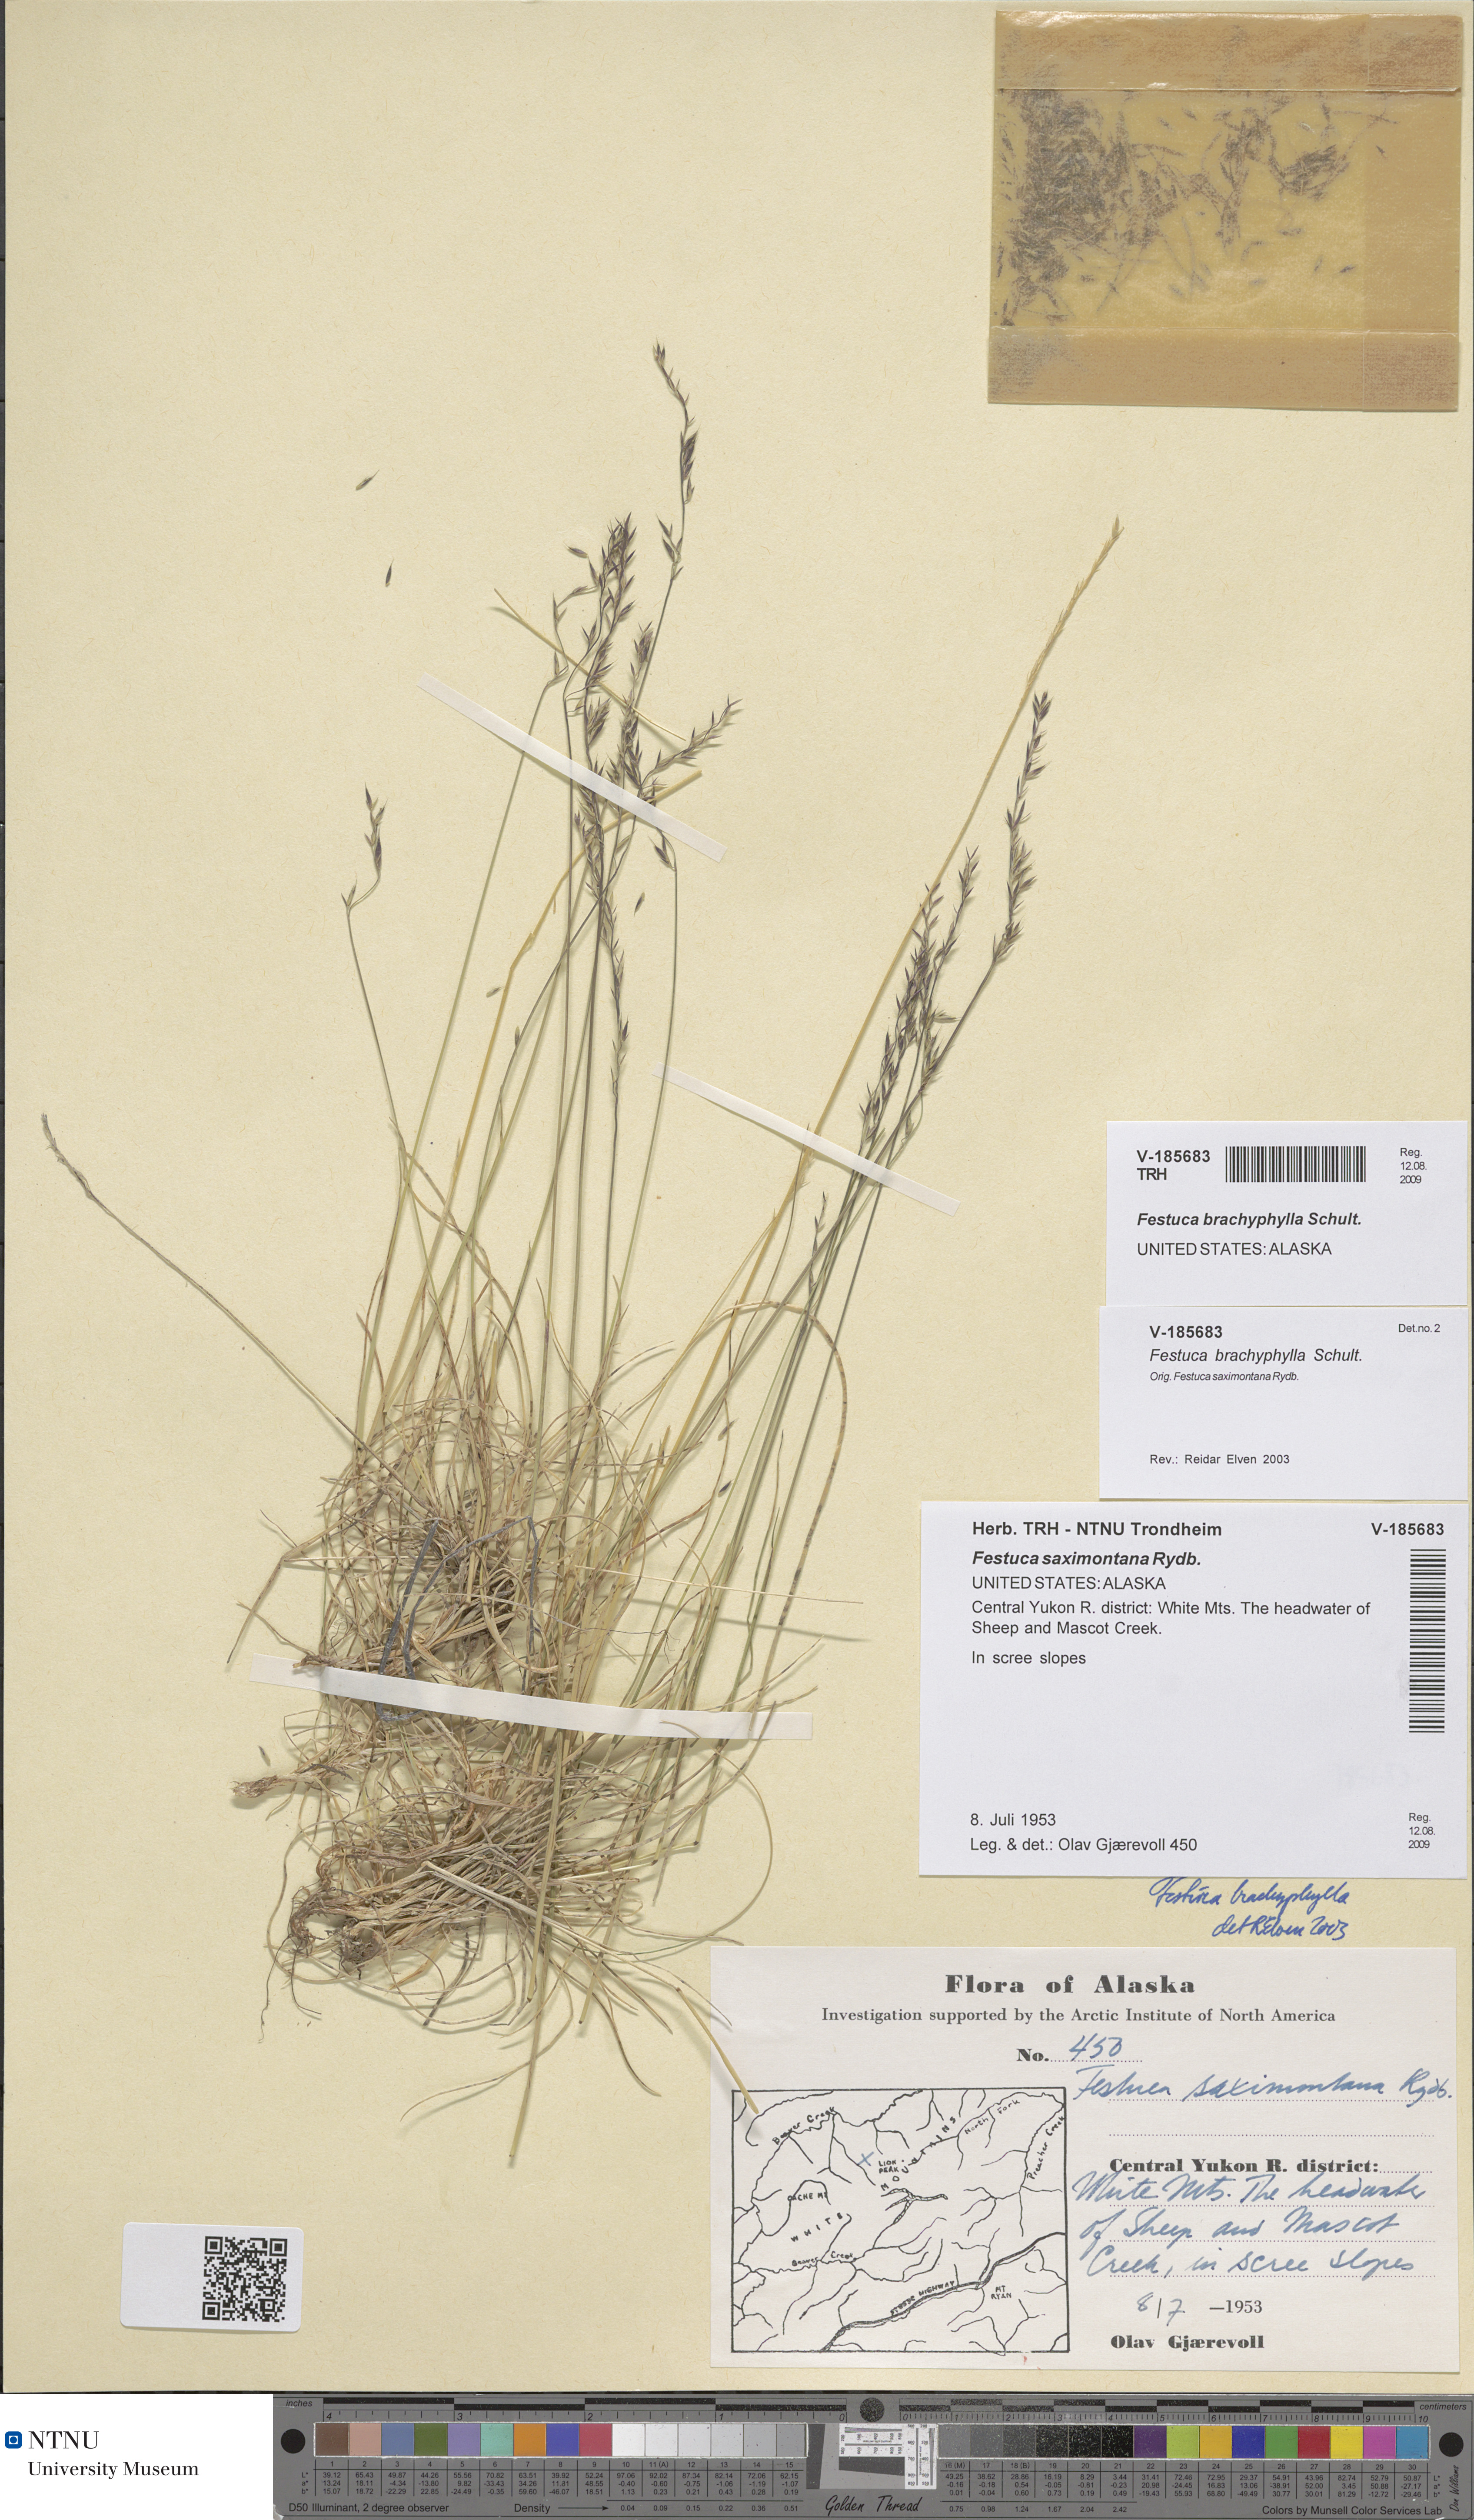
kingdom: Plantae
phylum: Tracheophyta
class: Liliopsida
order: Poales
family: Poaceae
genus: Festuca
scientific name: Festuca brachyphylla
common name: Alpine fescue
